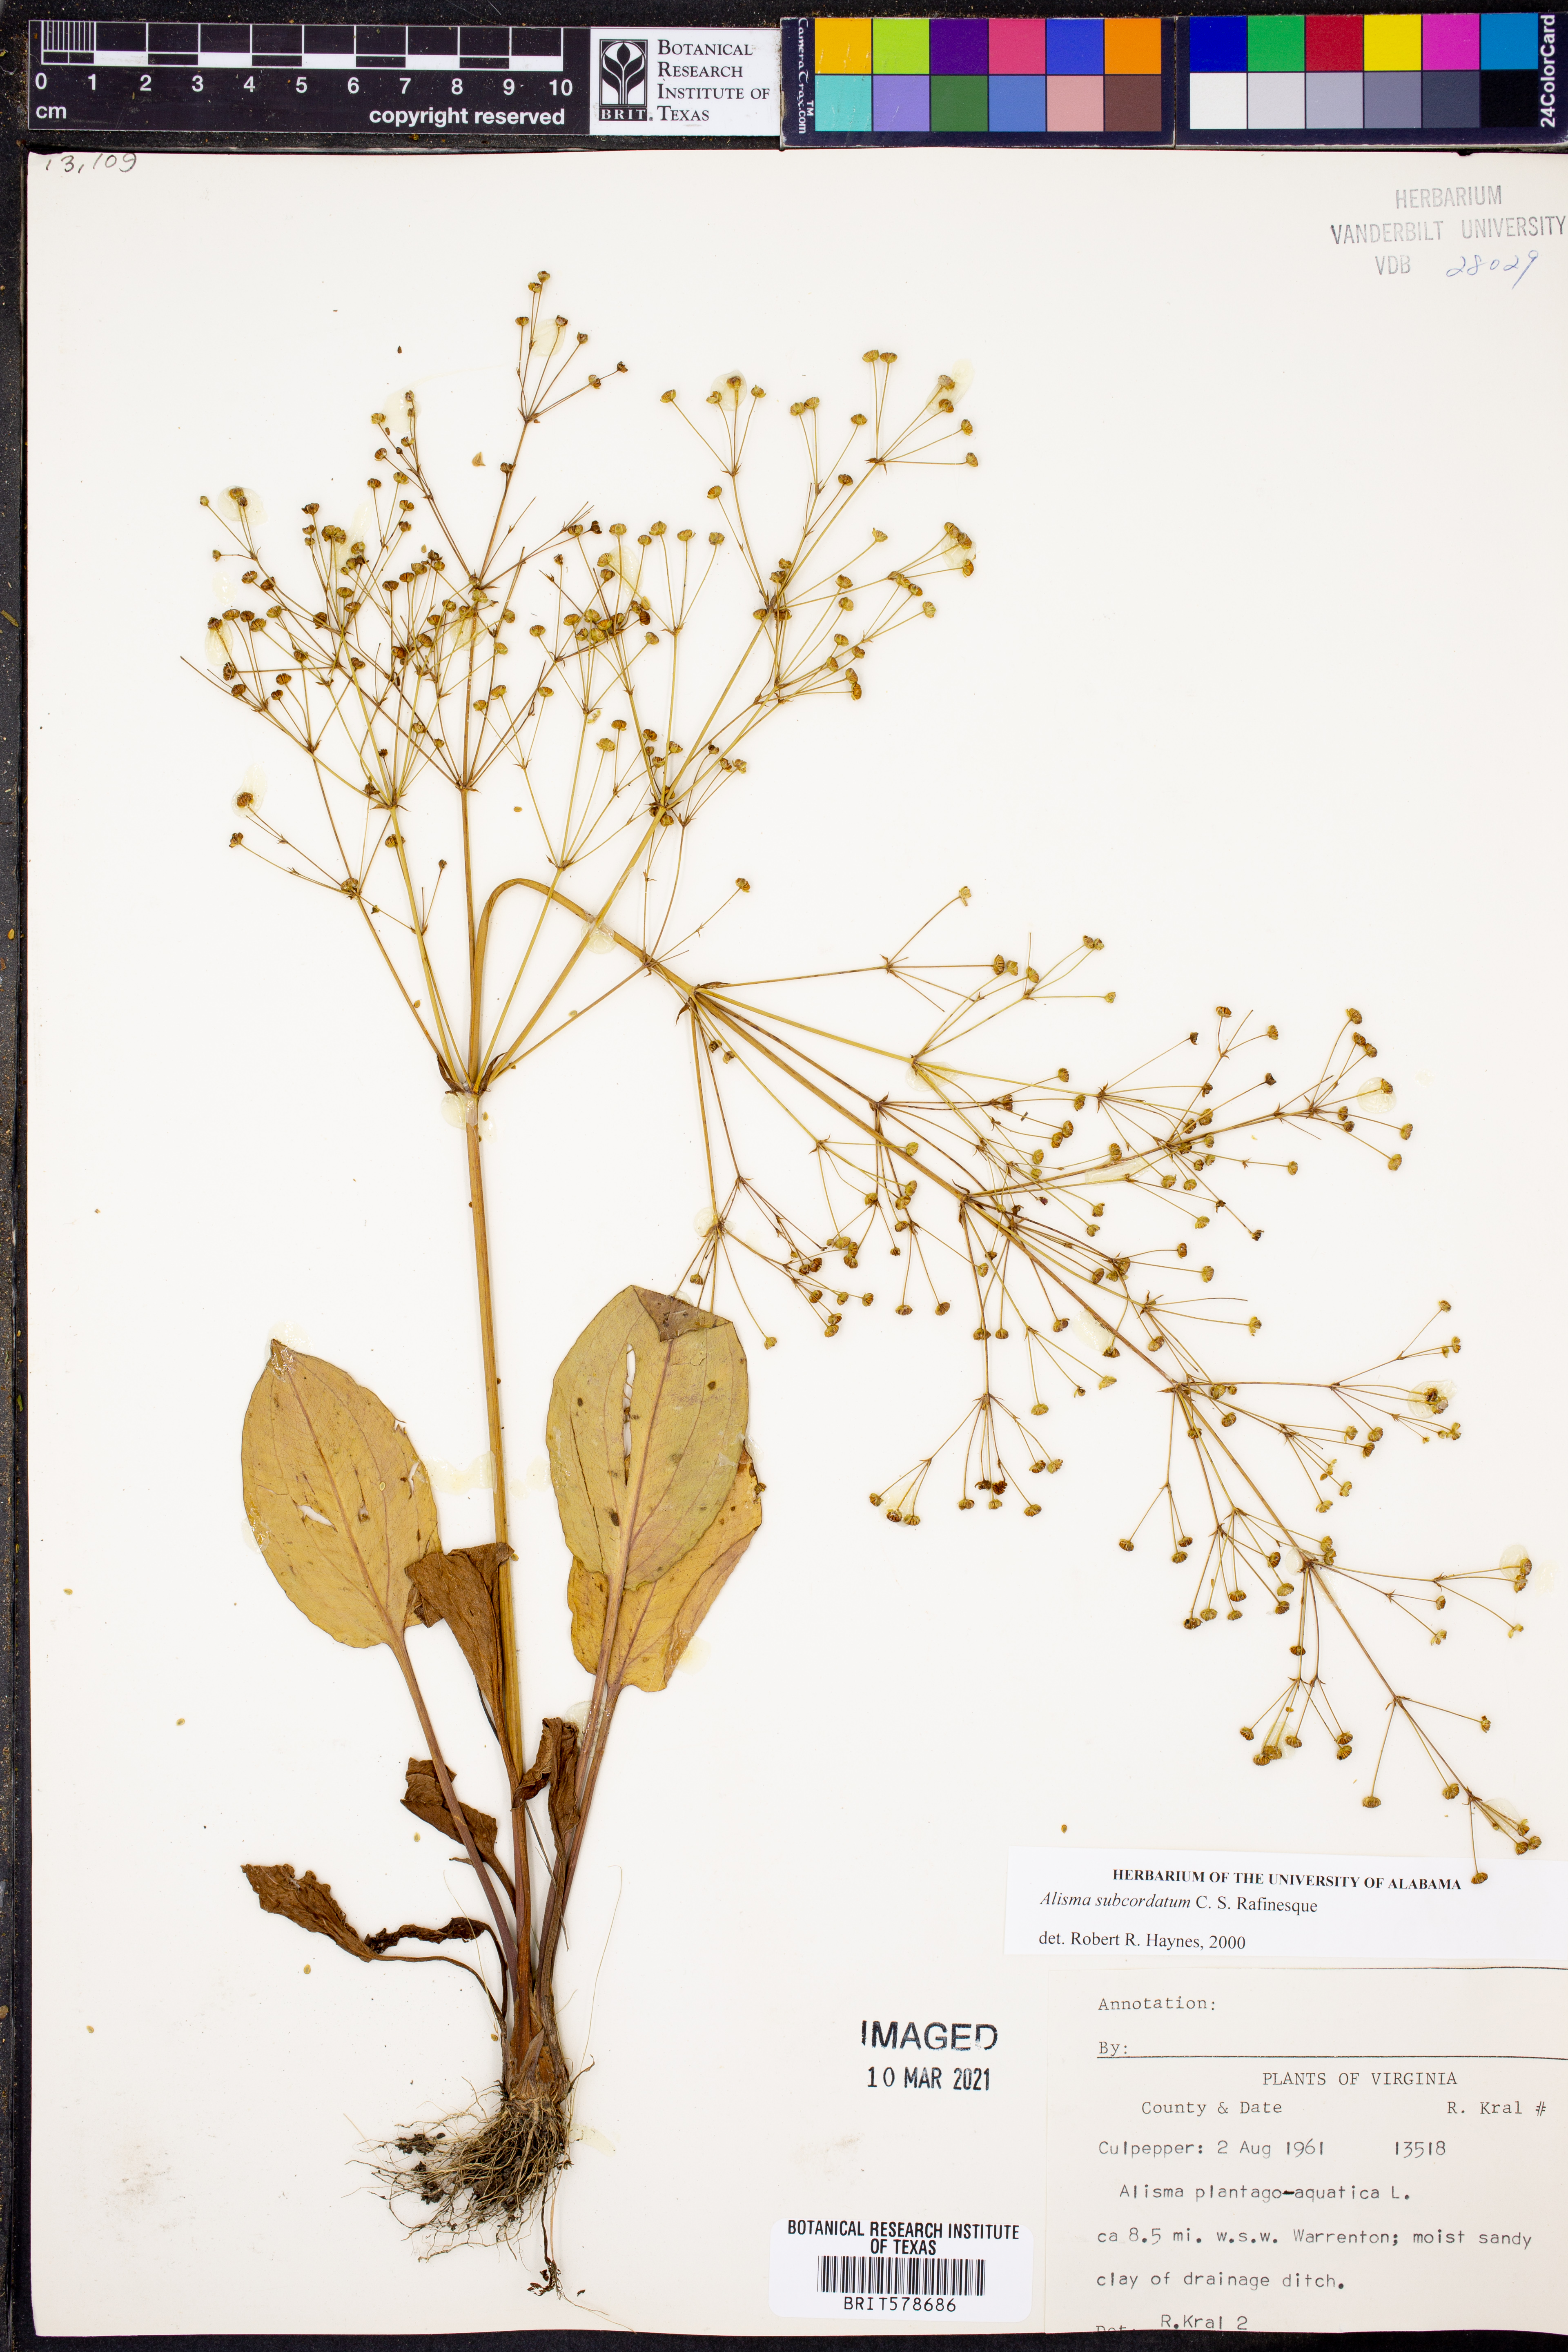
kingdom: Plantae
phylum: Tracheophyta
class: Liliopsida
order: Alismatales
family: Alismataceae
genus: Alisma
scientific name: Alisma subcordatum
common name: Southern water-plantain
